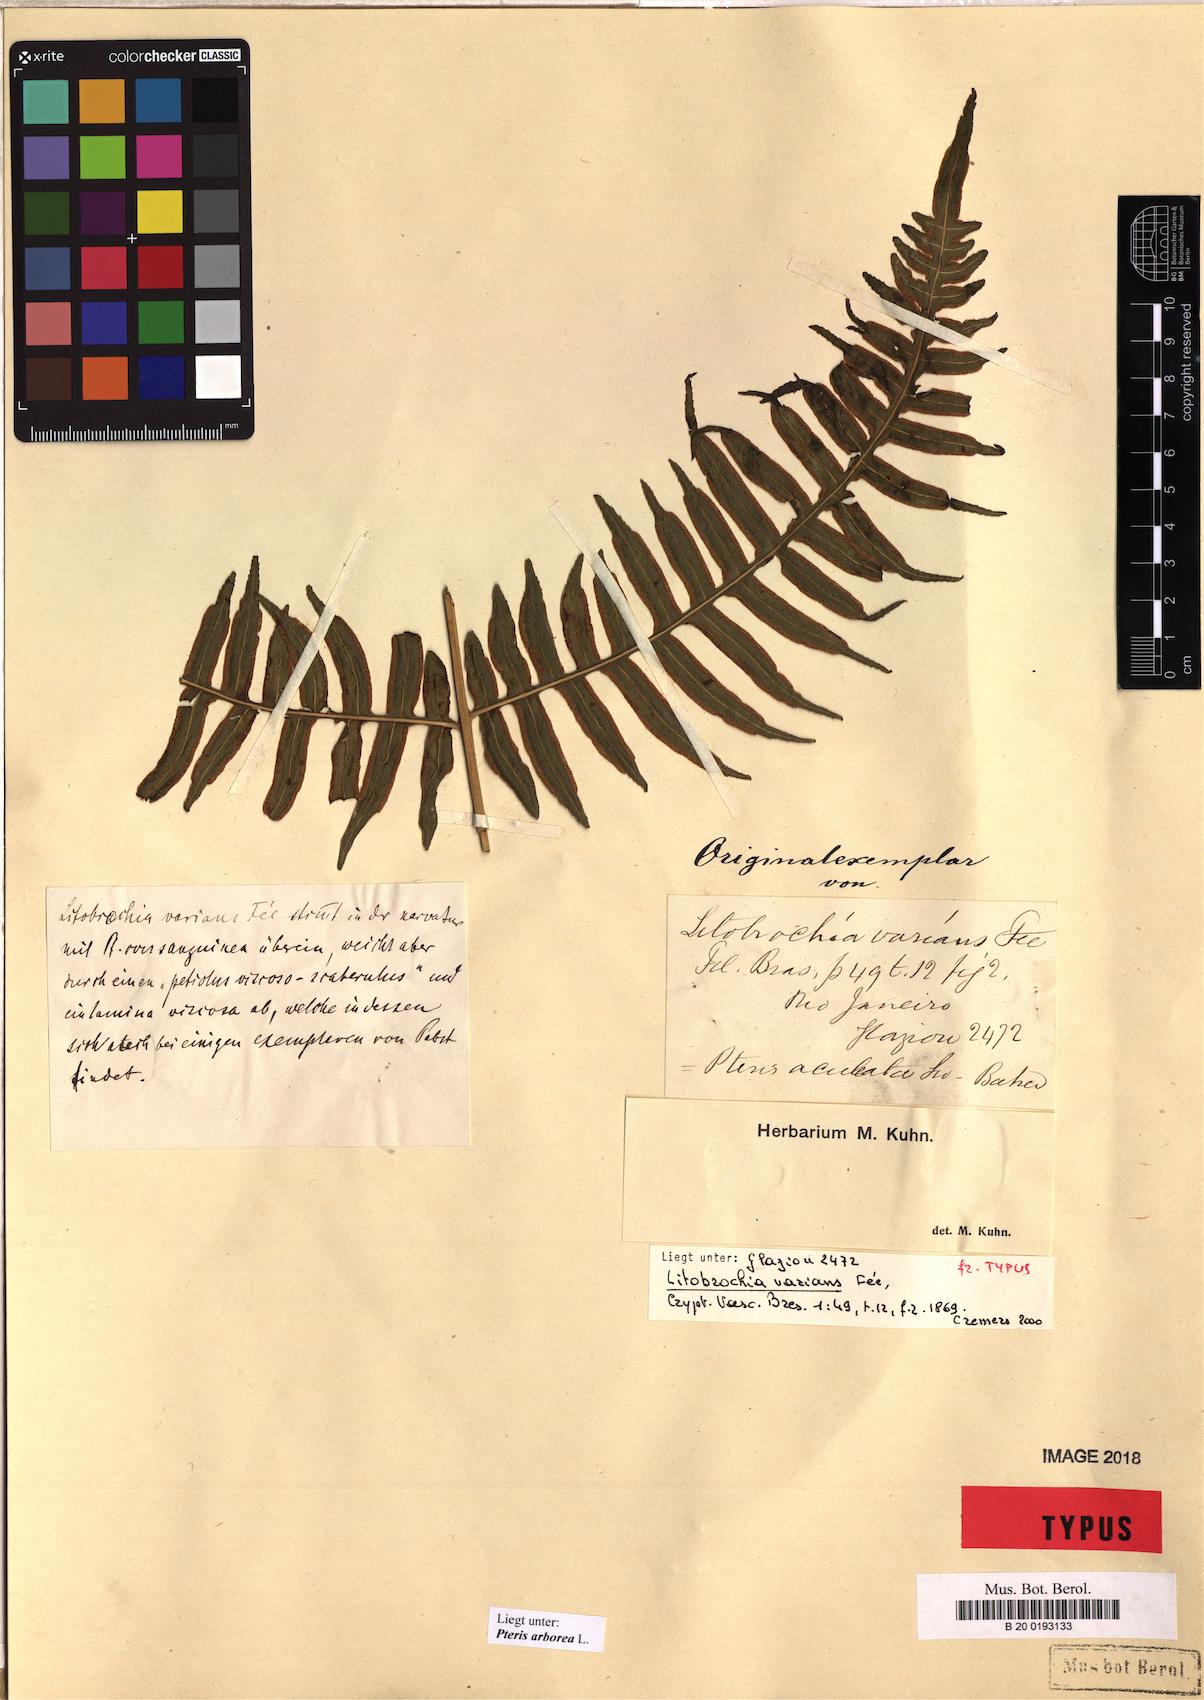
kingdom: Plantae
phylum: Tracheophyta
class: Polypodiopsida
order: Polypodiales
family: Pteridaceae
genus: Pteris
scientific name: Pteris arborea
